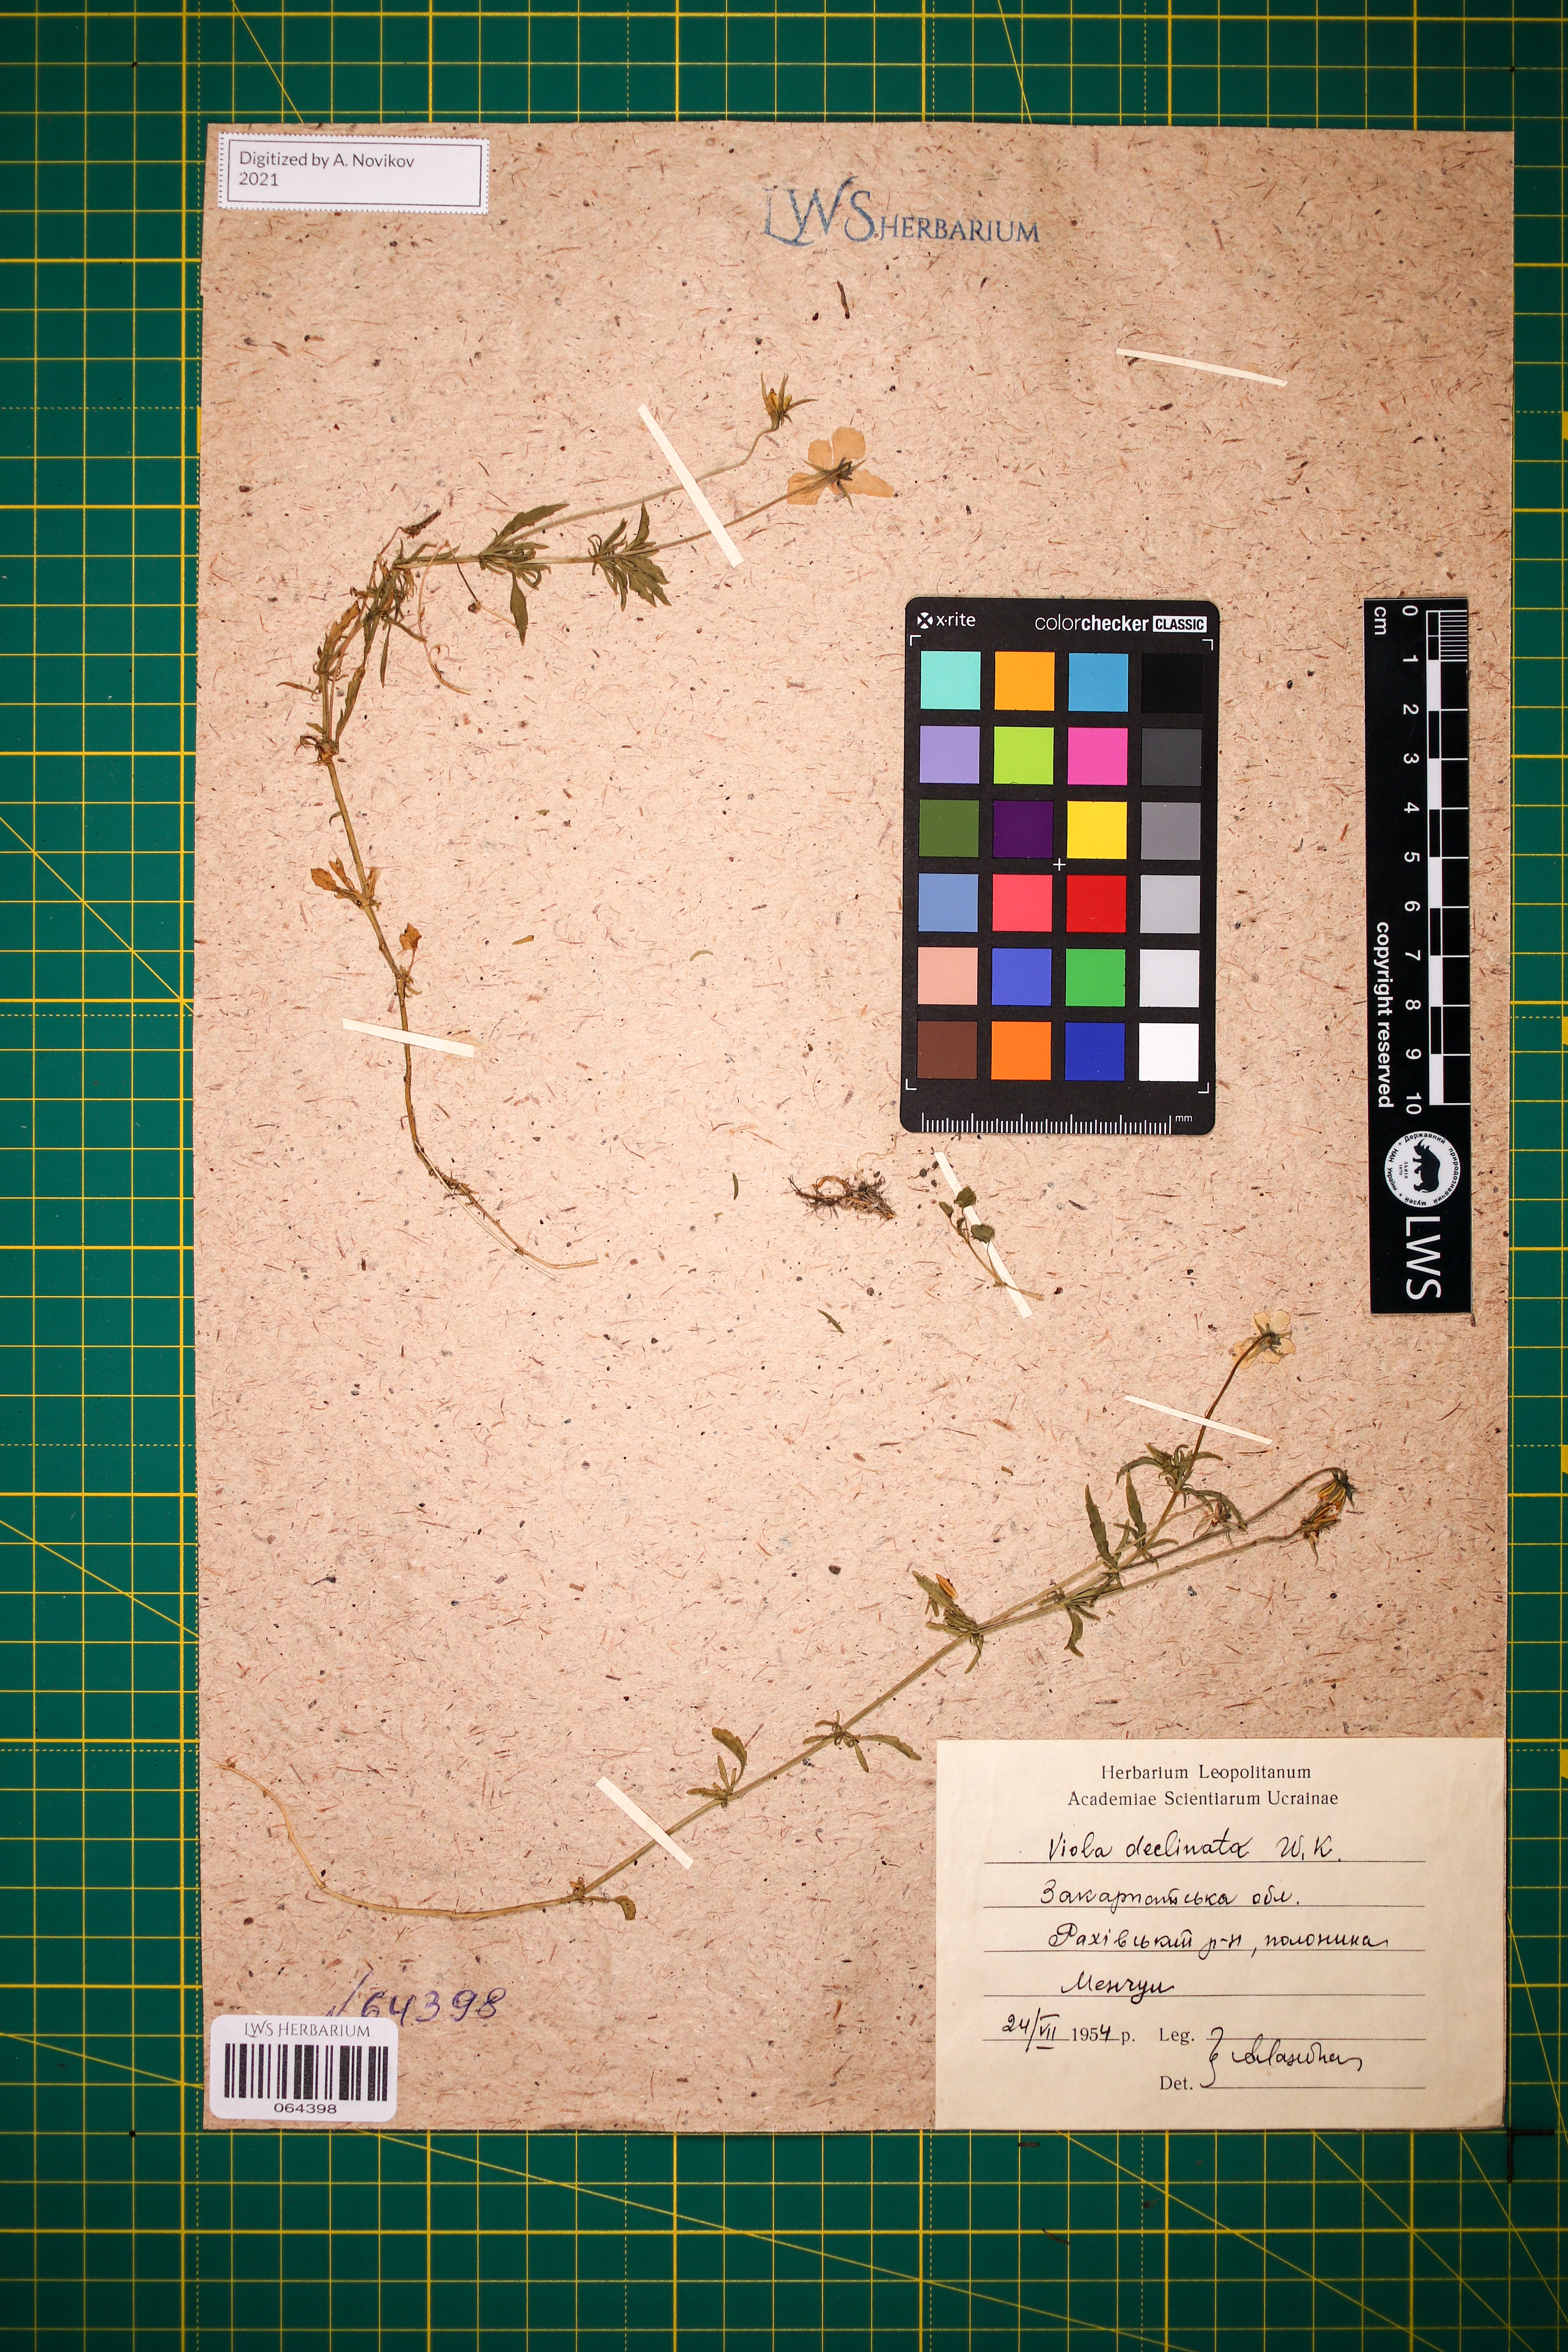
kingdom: Plantae
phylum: Tracheophyta
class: Magnoliopsida
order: Malpighiales
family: Violaceae
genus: Viola
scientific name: Viola declinata
